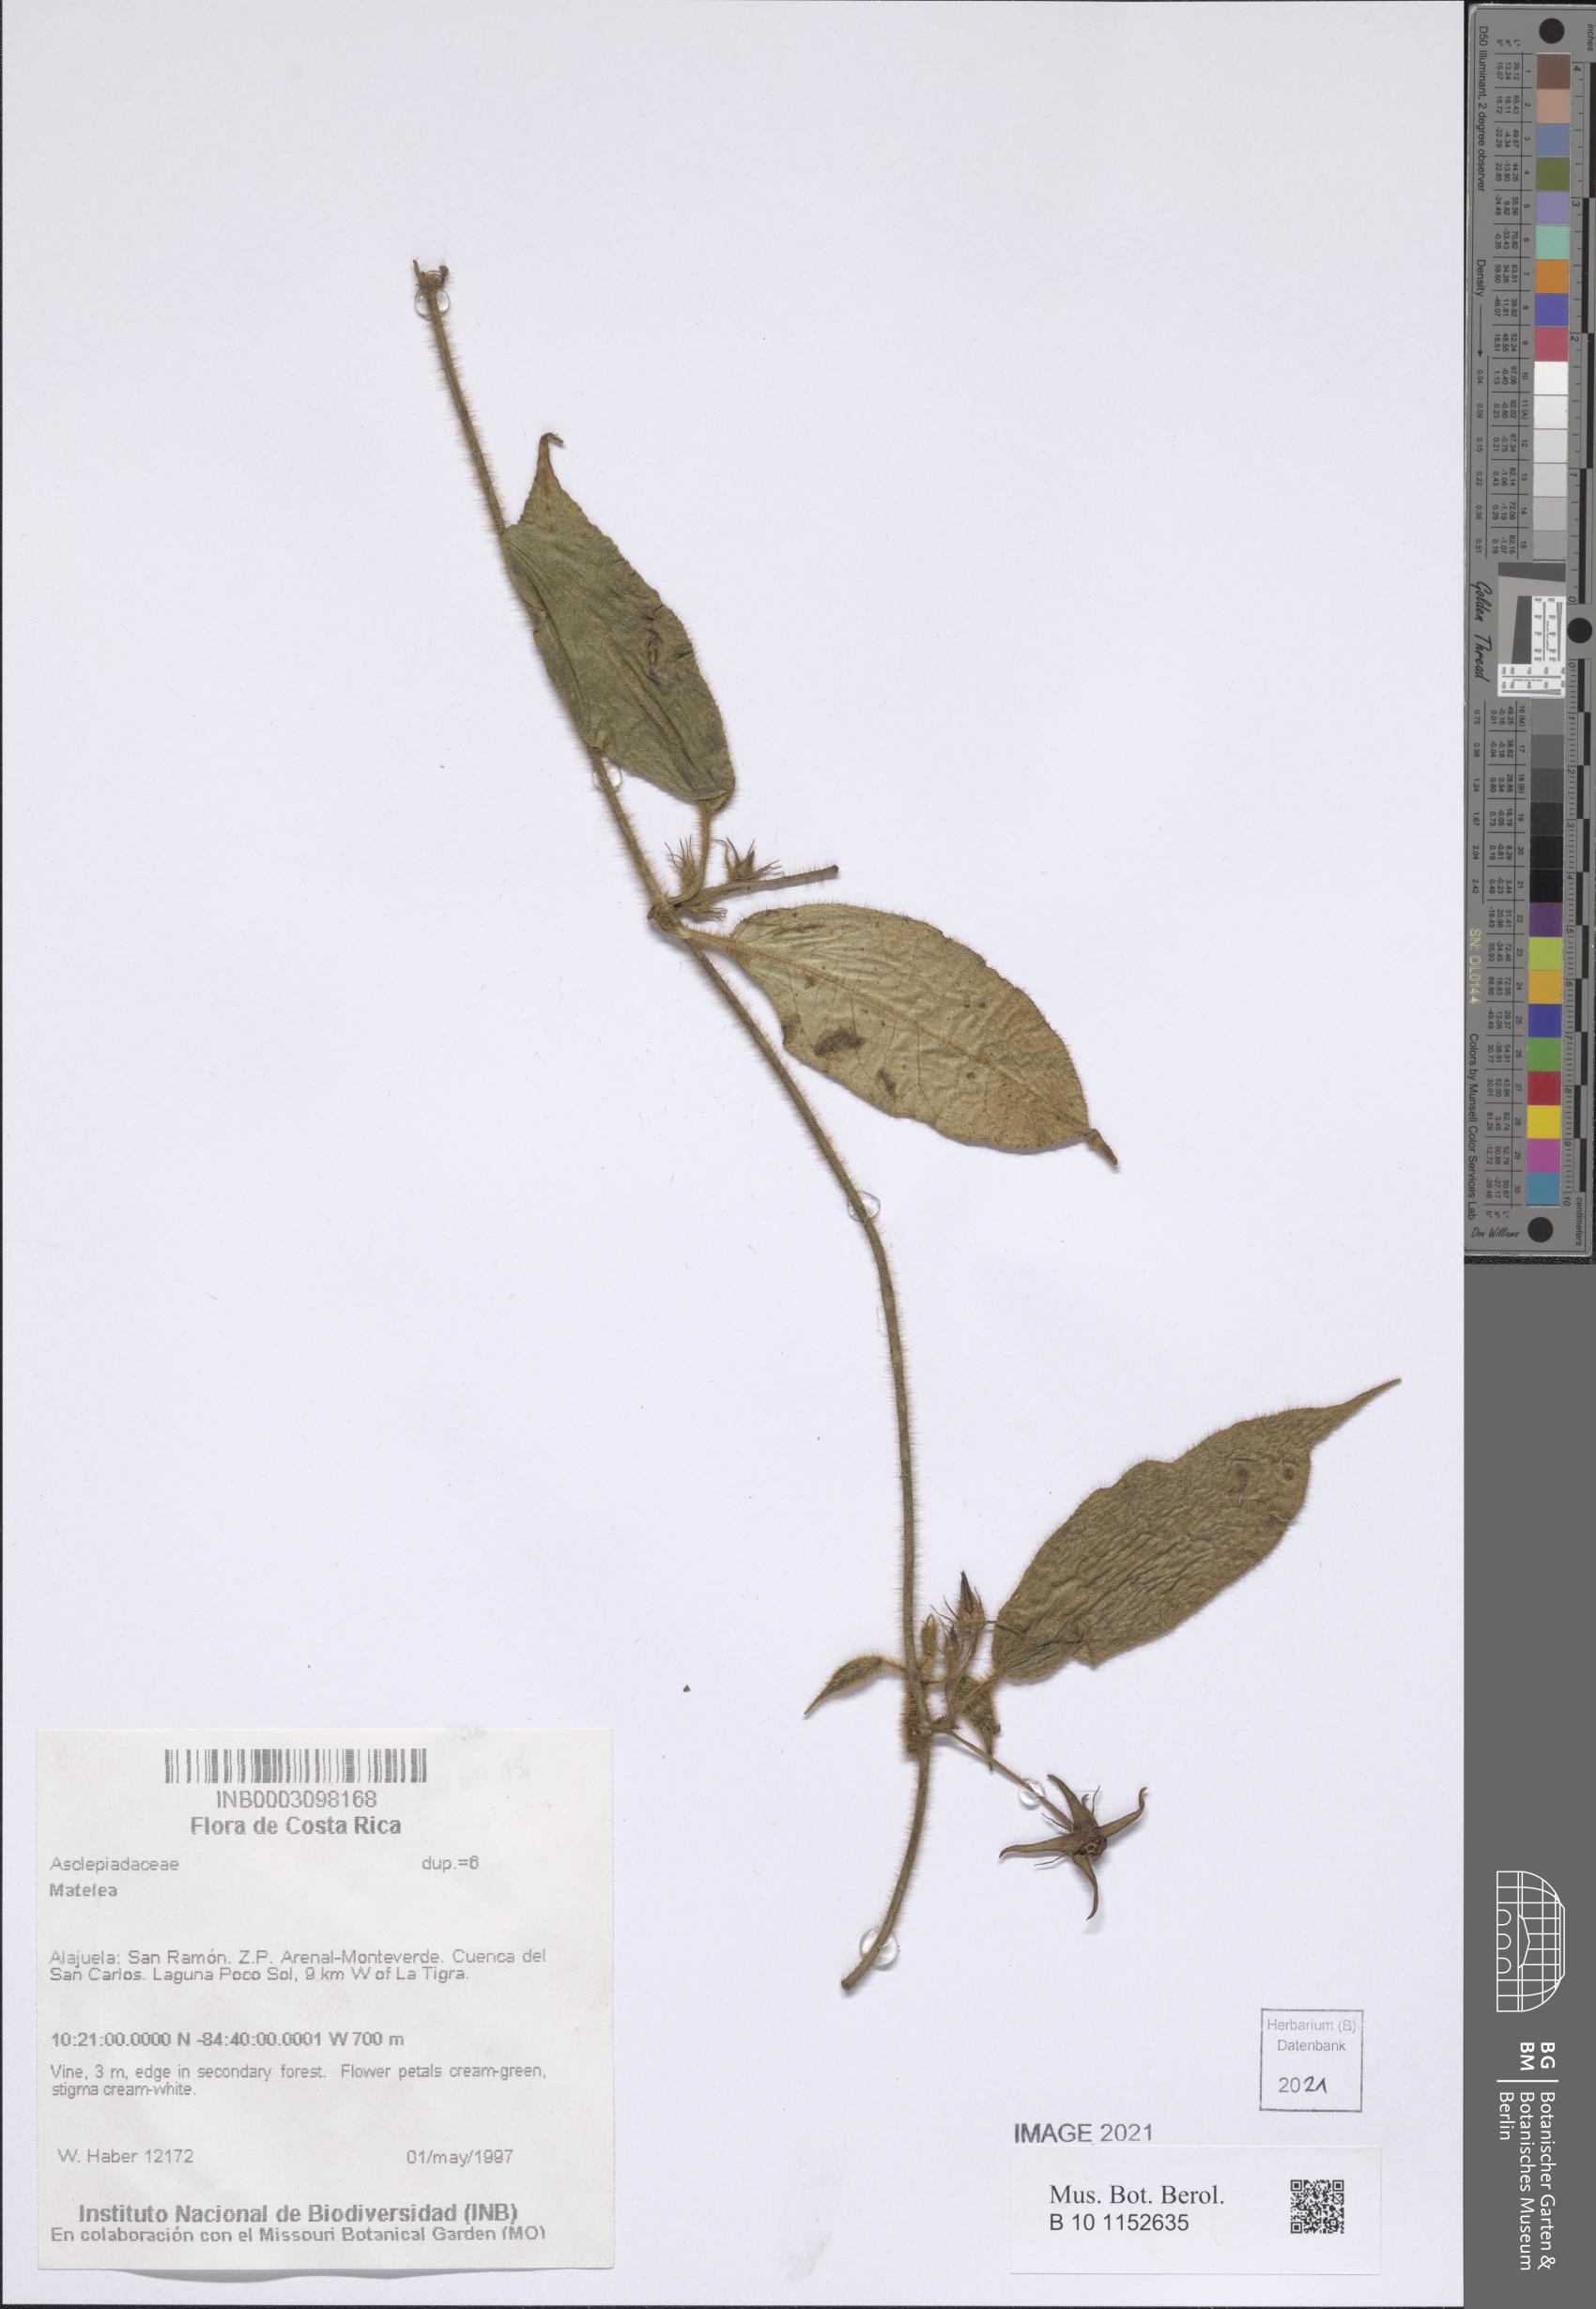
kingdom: Plantae
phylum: Tracheophyta
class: Magnoliopsida
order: Gentianales
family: Apocynaceae
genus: Gonolobus
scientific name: Gonolobus heterophyllus
